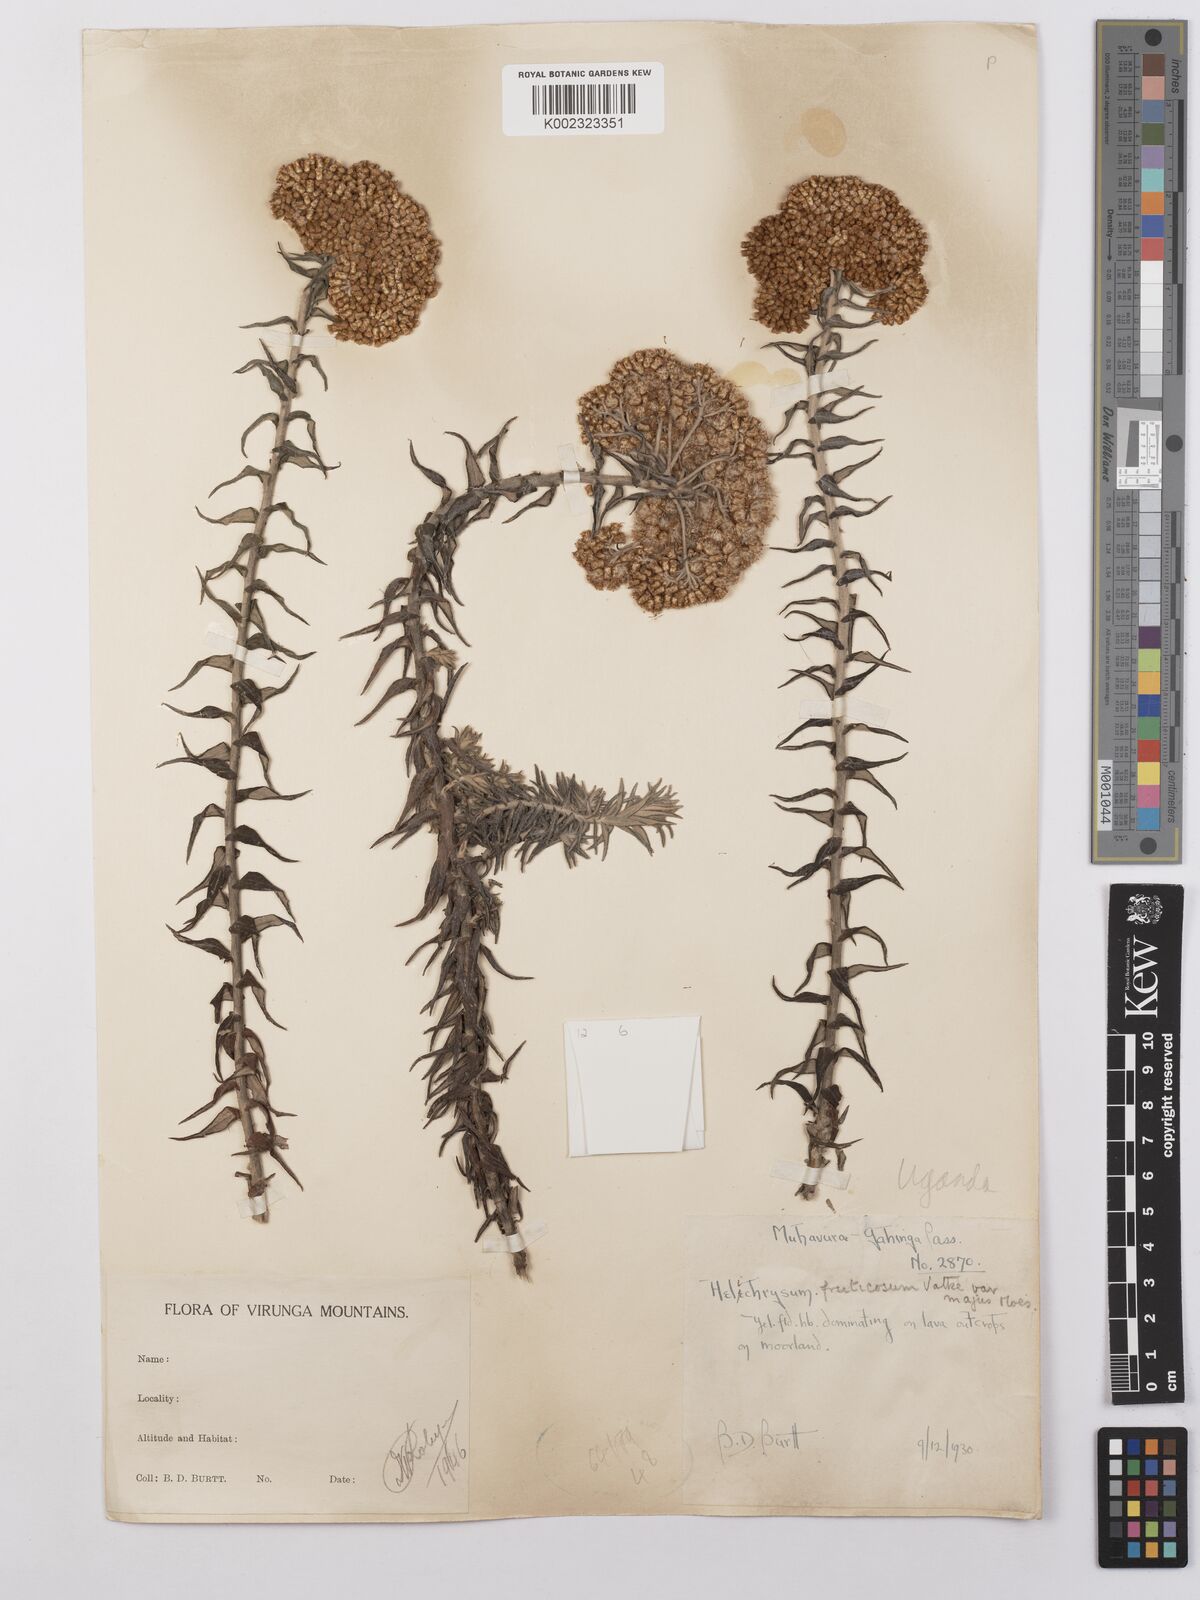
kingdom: Plantae
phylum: Tracheophyta
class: Magnoliopsida
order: Asterales
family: Asteraceae
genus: Helichrysum
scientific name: Helichrysum forskahlii
